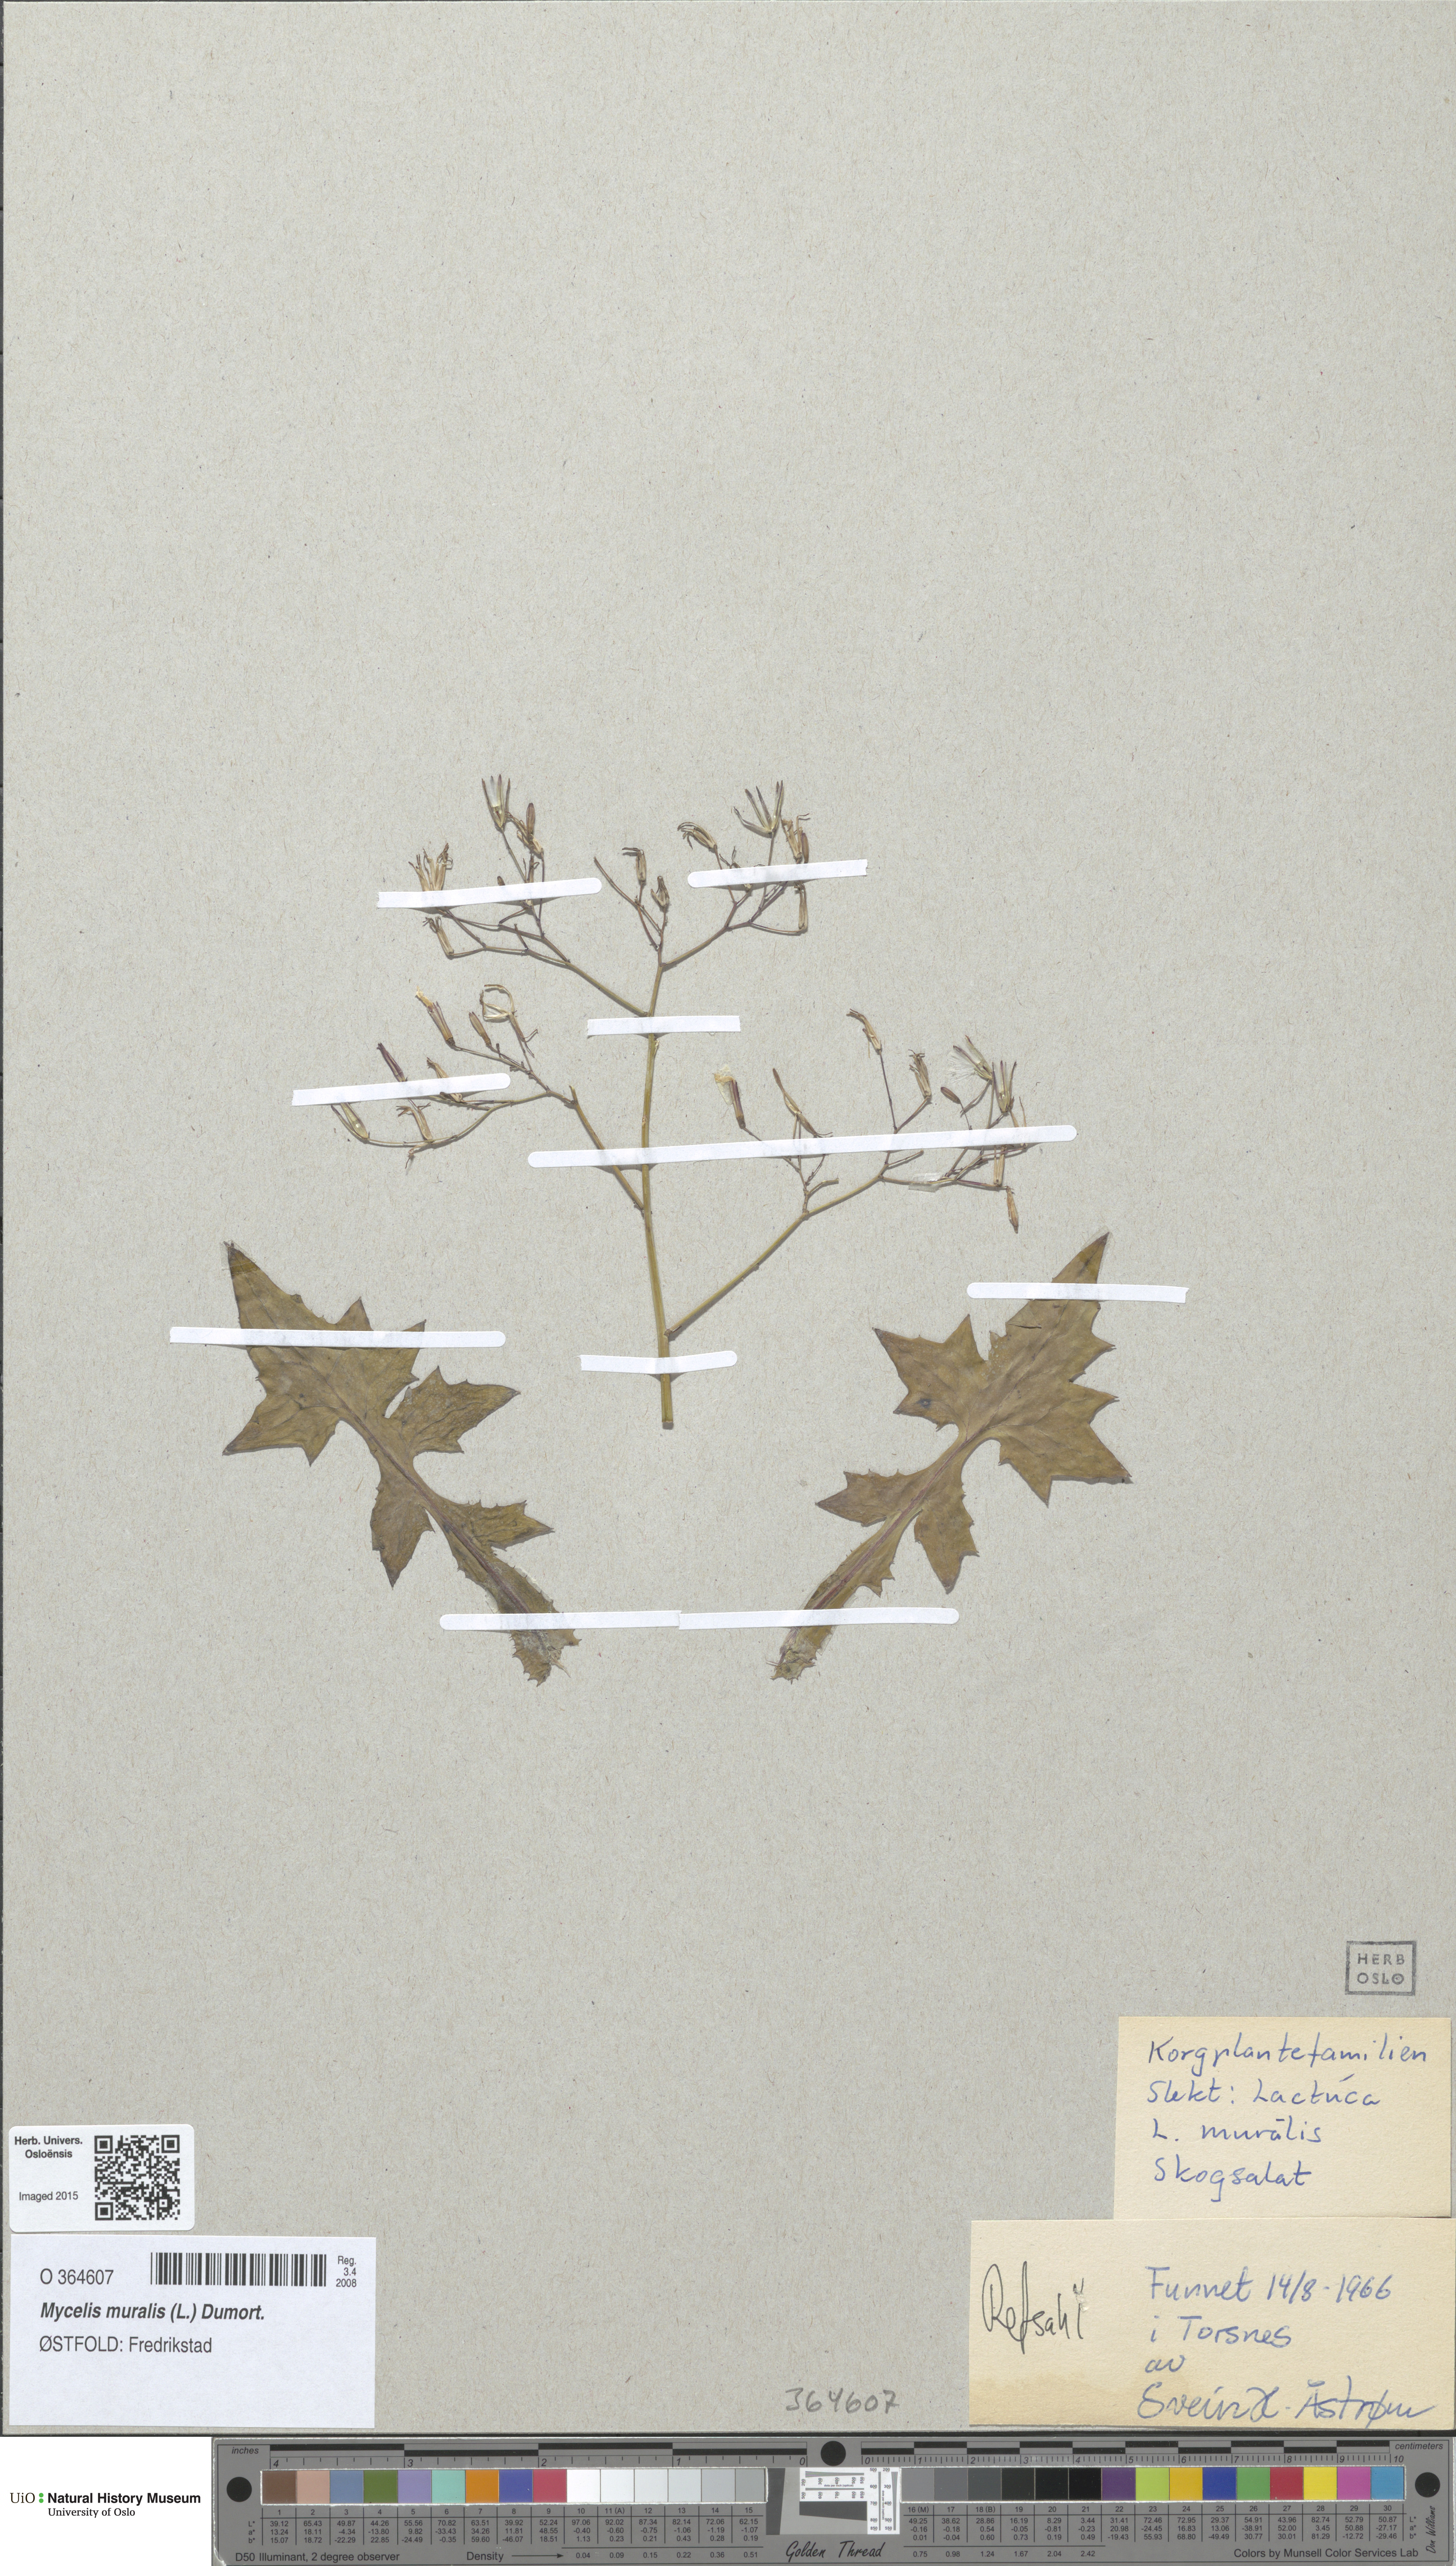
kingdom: Plantae
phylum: Tracheophyta
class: Magnoliopsida
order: Asterales
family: Asteraceae
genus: Mycelis
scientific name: Mycelis muralis
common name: Wall lettuce
